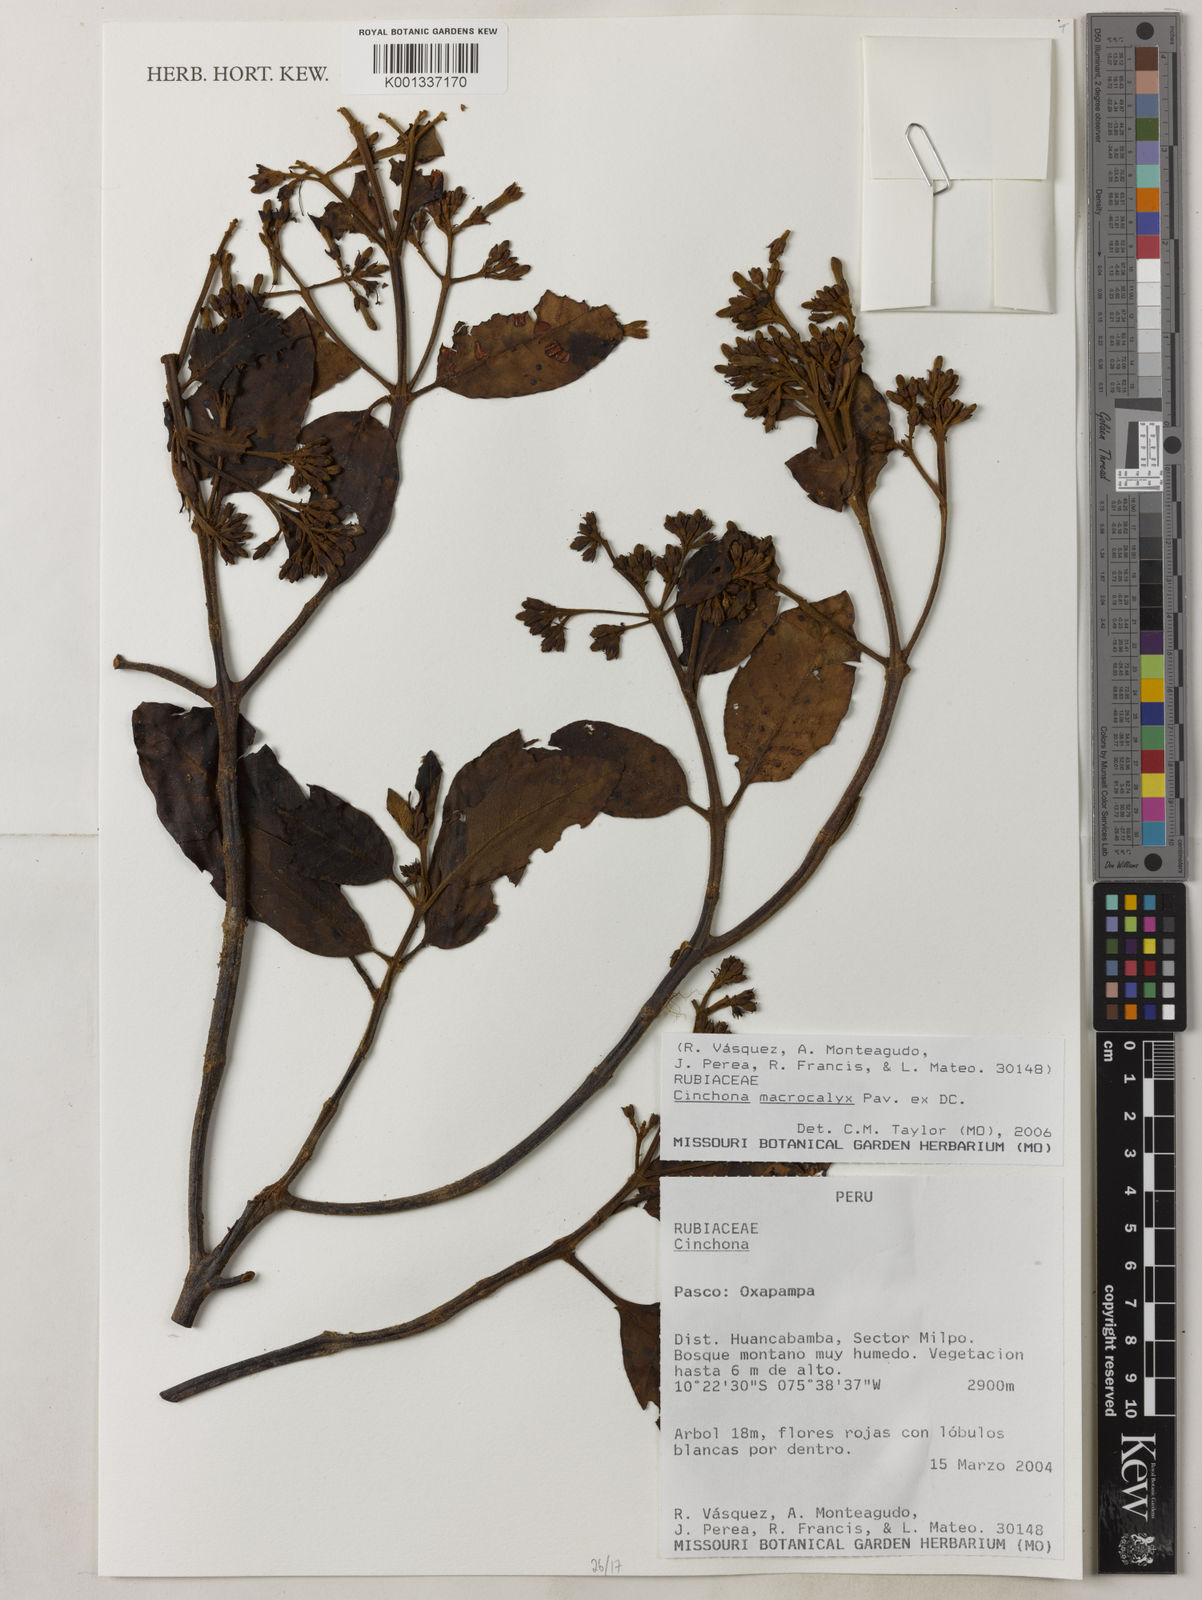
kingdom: Plantae
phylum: Tracheophyta
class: Magnoliopsida
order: Gentianales
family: Rubiaceae
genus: Cinchona
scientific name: Cinchona macrocalyx
